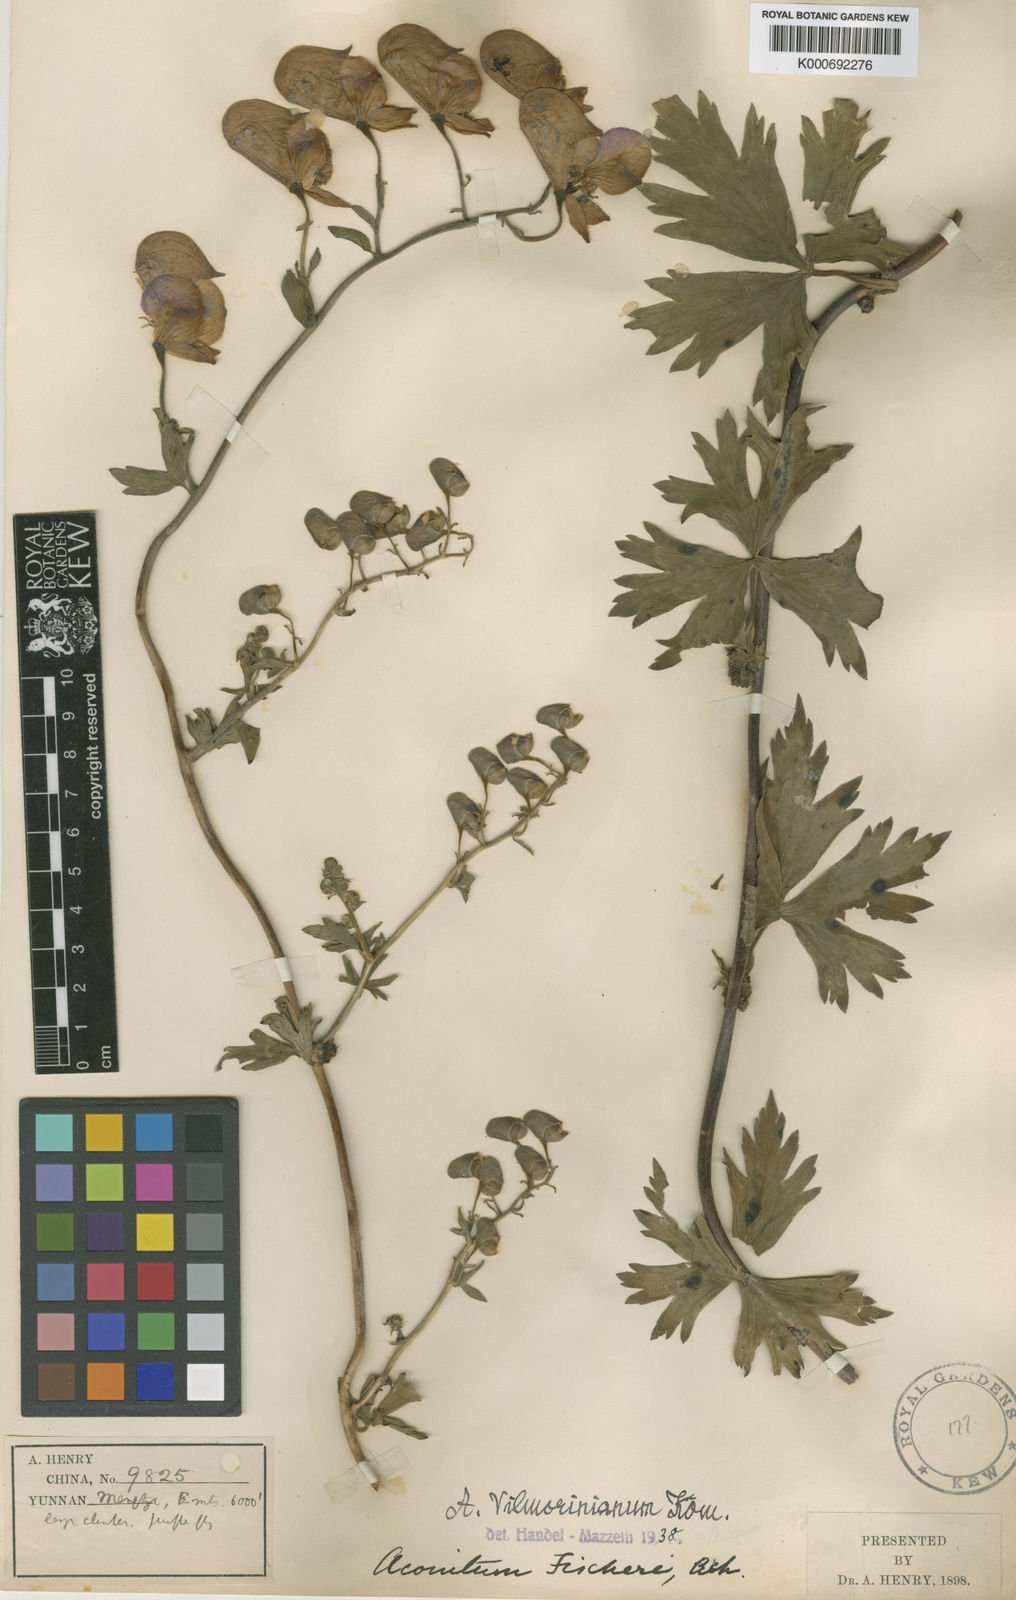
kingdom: Plantae
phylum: Tracheophyta
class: Magnoliopsida
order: Ranunculales
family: Ranunculaceae
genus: Aconitum
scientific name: Aconitum vilmorinianum
